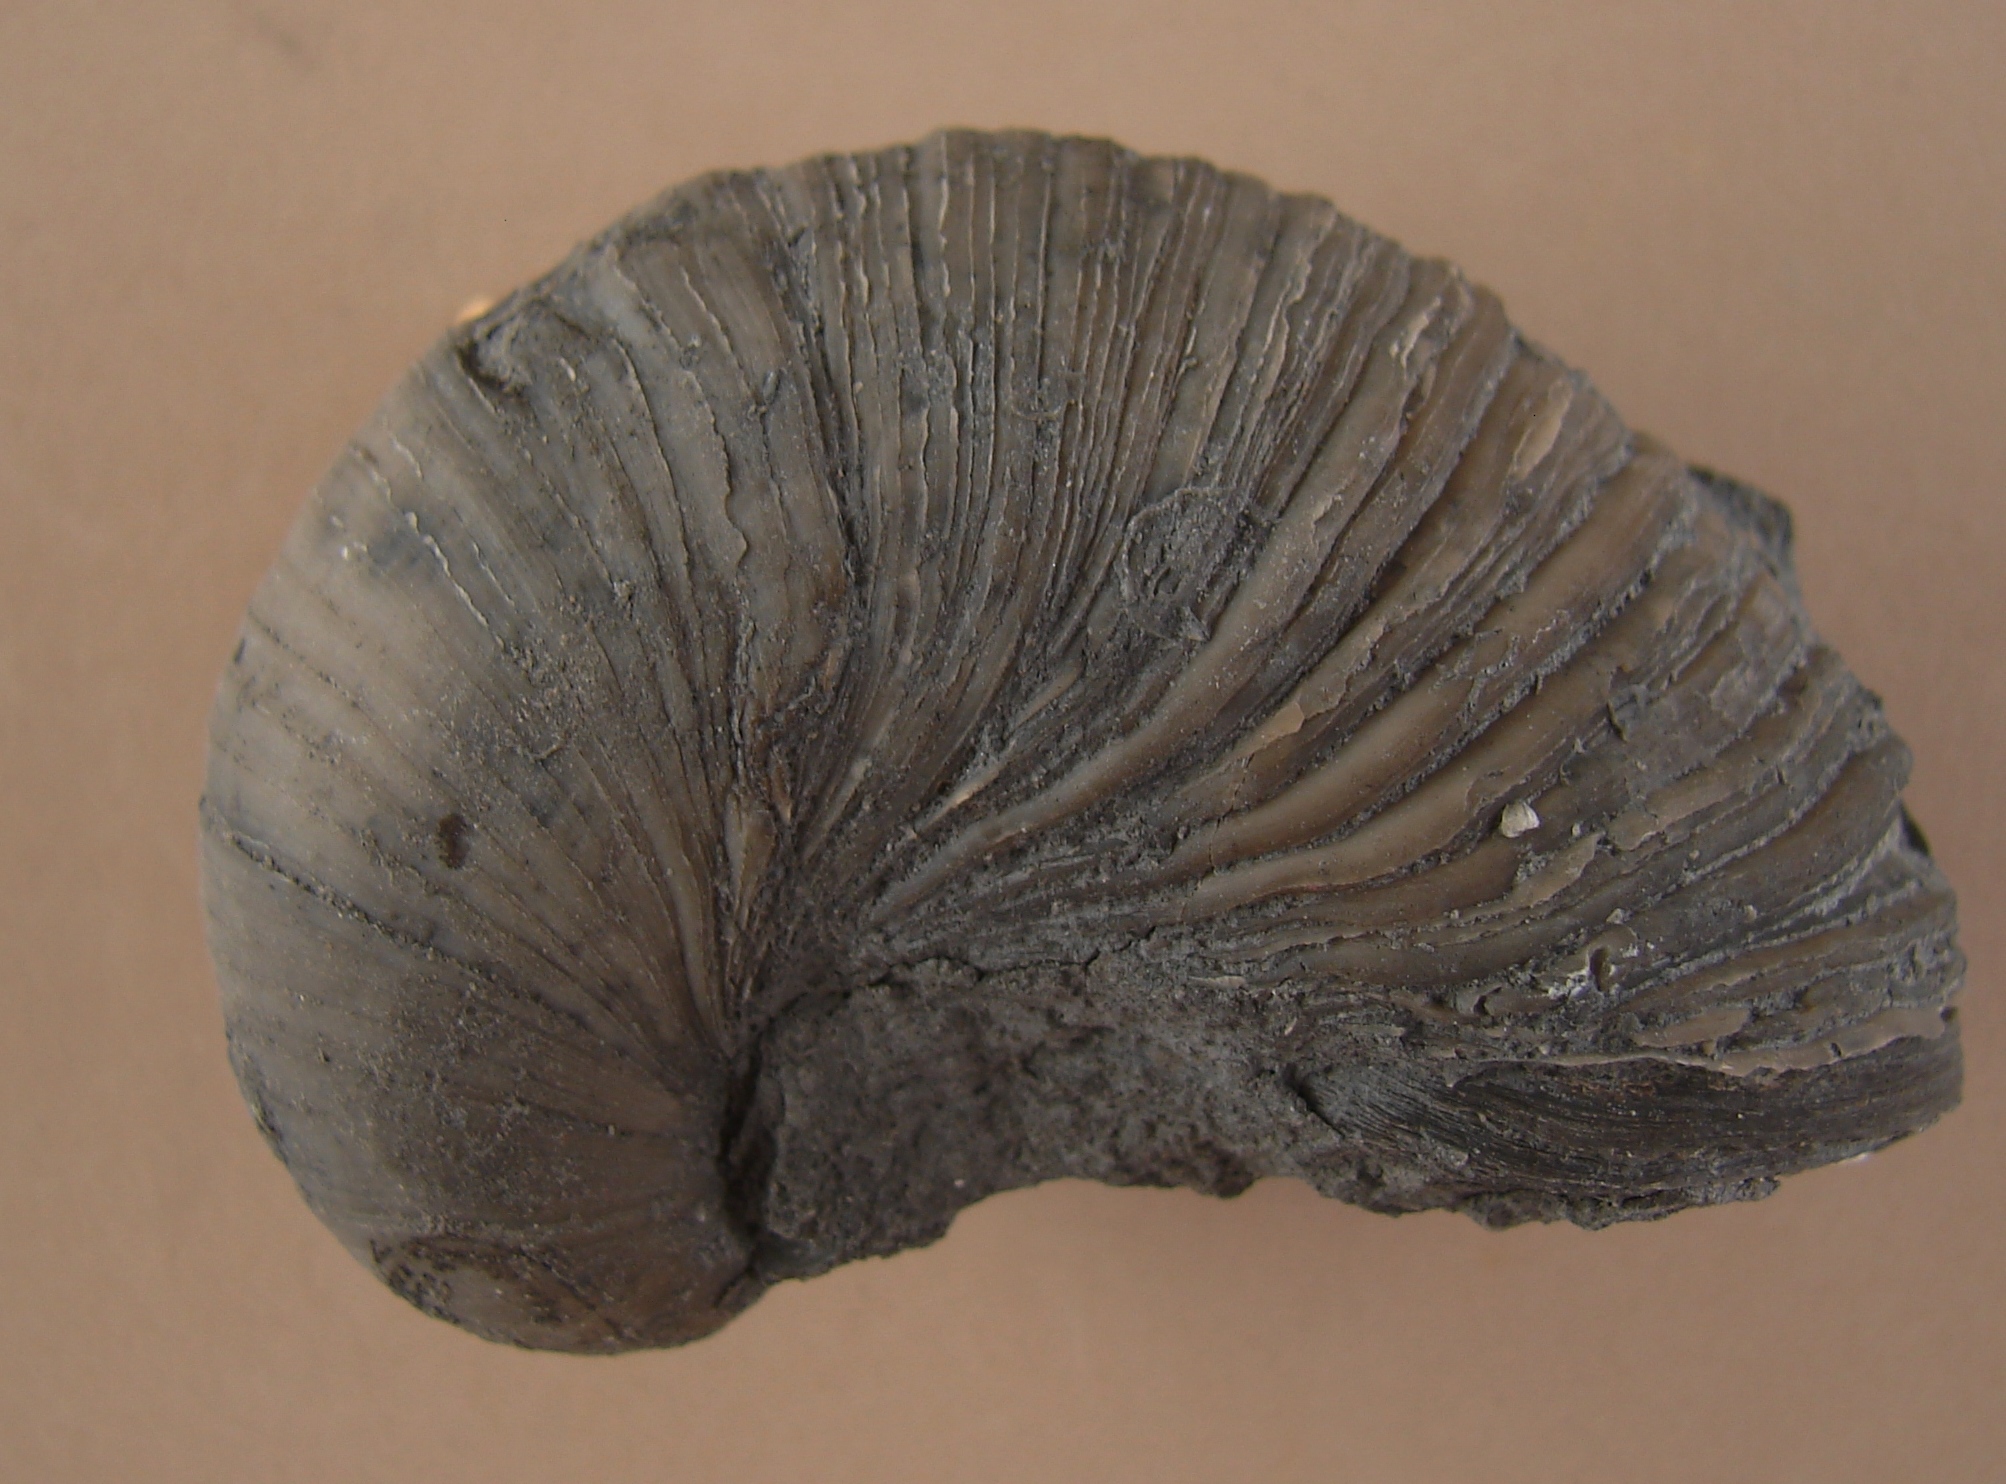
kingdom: Animalia
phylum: Mollusca
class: Bivalvia
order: Ostreida
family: Gryphaeidae
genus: Gryphaea
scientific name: Gryphaea arcuata
